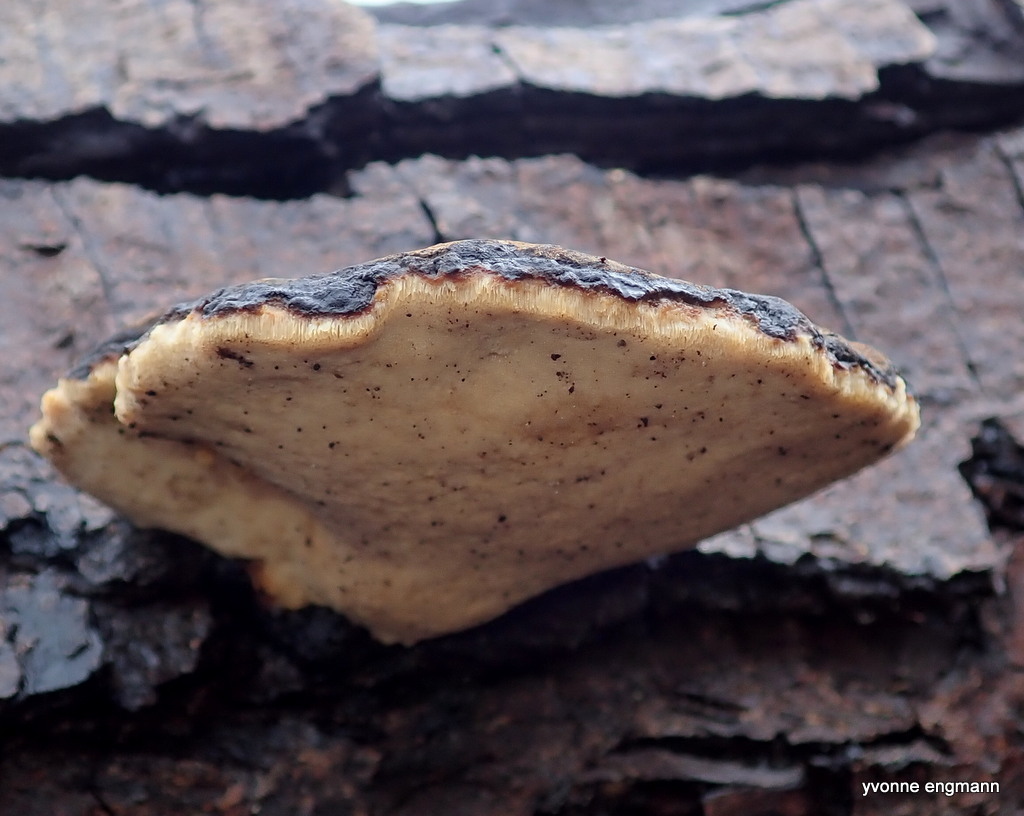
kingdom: Fungi
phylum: Basidiomycota
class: Agaricomycetes
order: Polyporales
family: Ischnodermataceae
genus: Ischnoderma
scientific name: Ischnoderma resinosum
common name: løv-tjæreporesvamp
